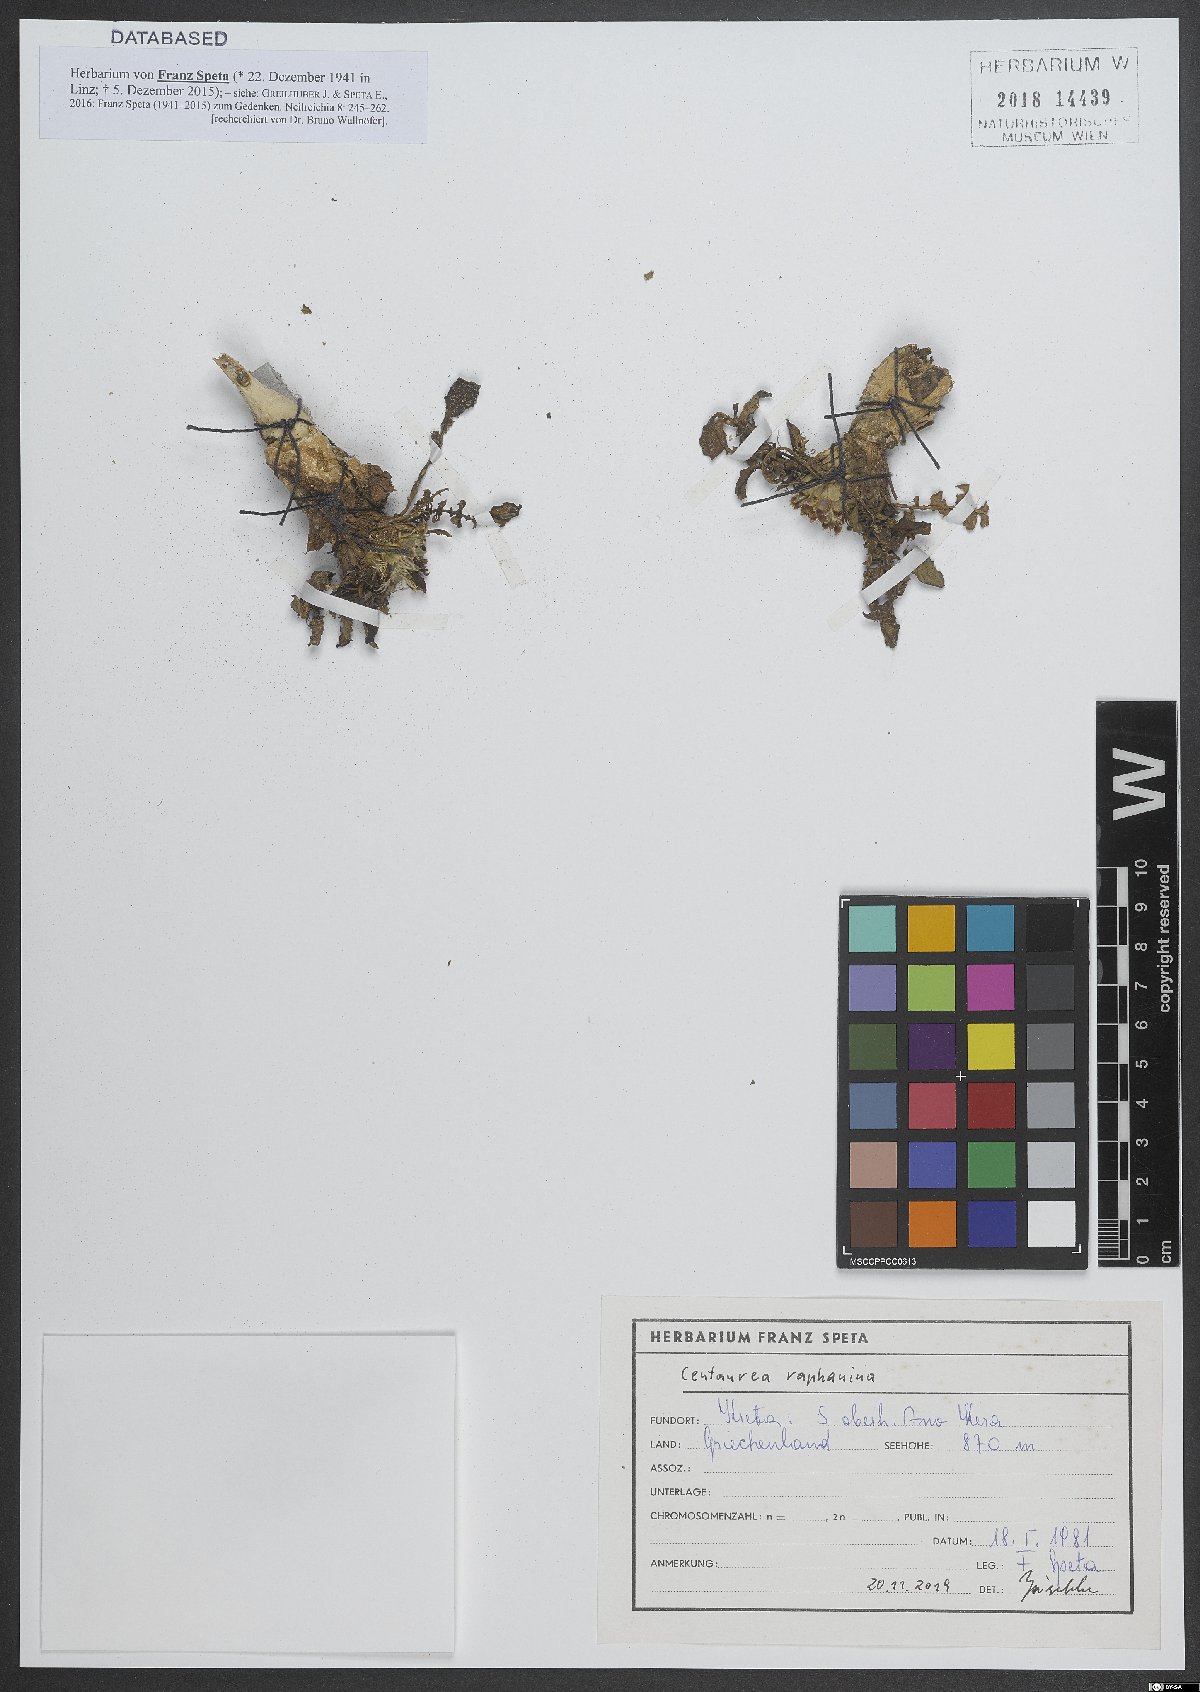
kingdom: Plantae
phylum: Tracheophyta
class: Magnoliopsida
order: Asterales
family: Asteraceae
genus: Centaurea
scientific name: Centaurea raphanina
